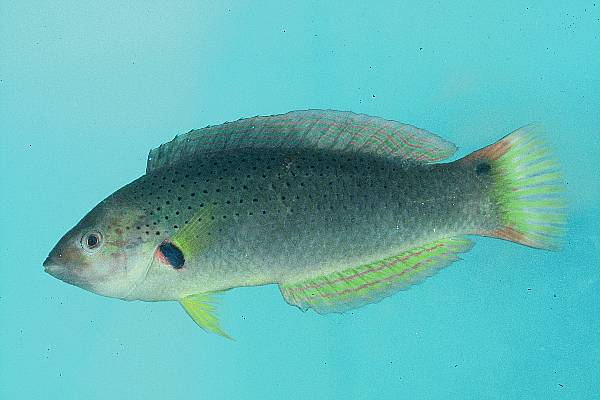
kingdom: Animalia
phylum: Chordata
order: Perciformes
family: Labridae
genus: Halichoeres
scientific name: Halichoeres melanochir
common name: Black wrasse
